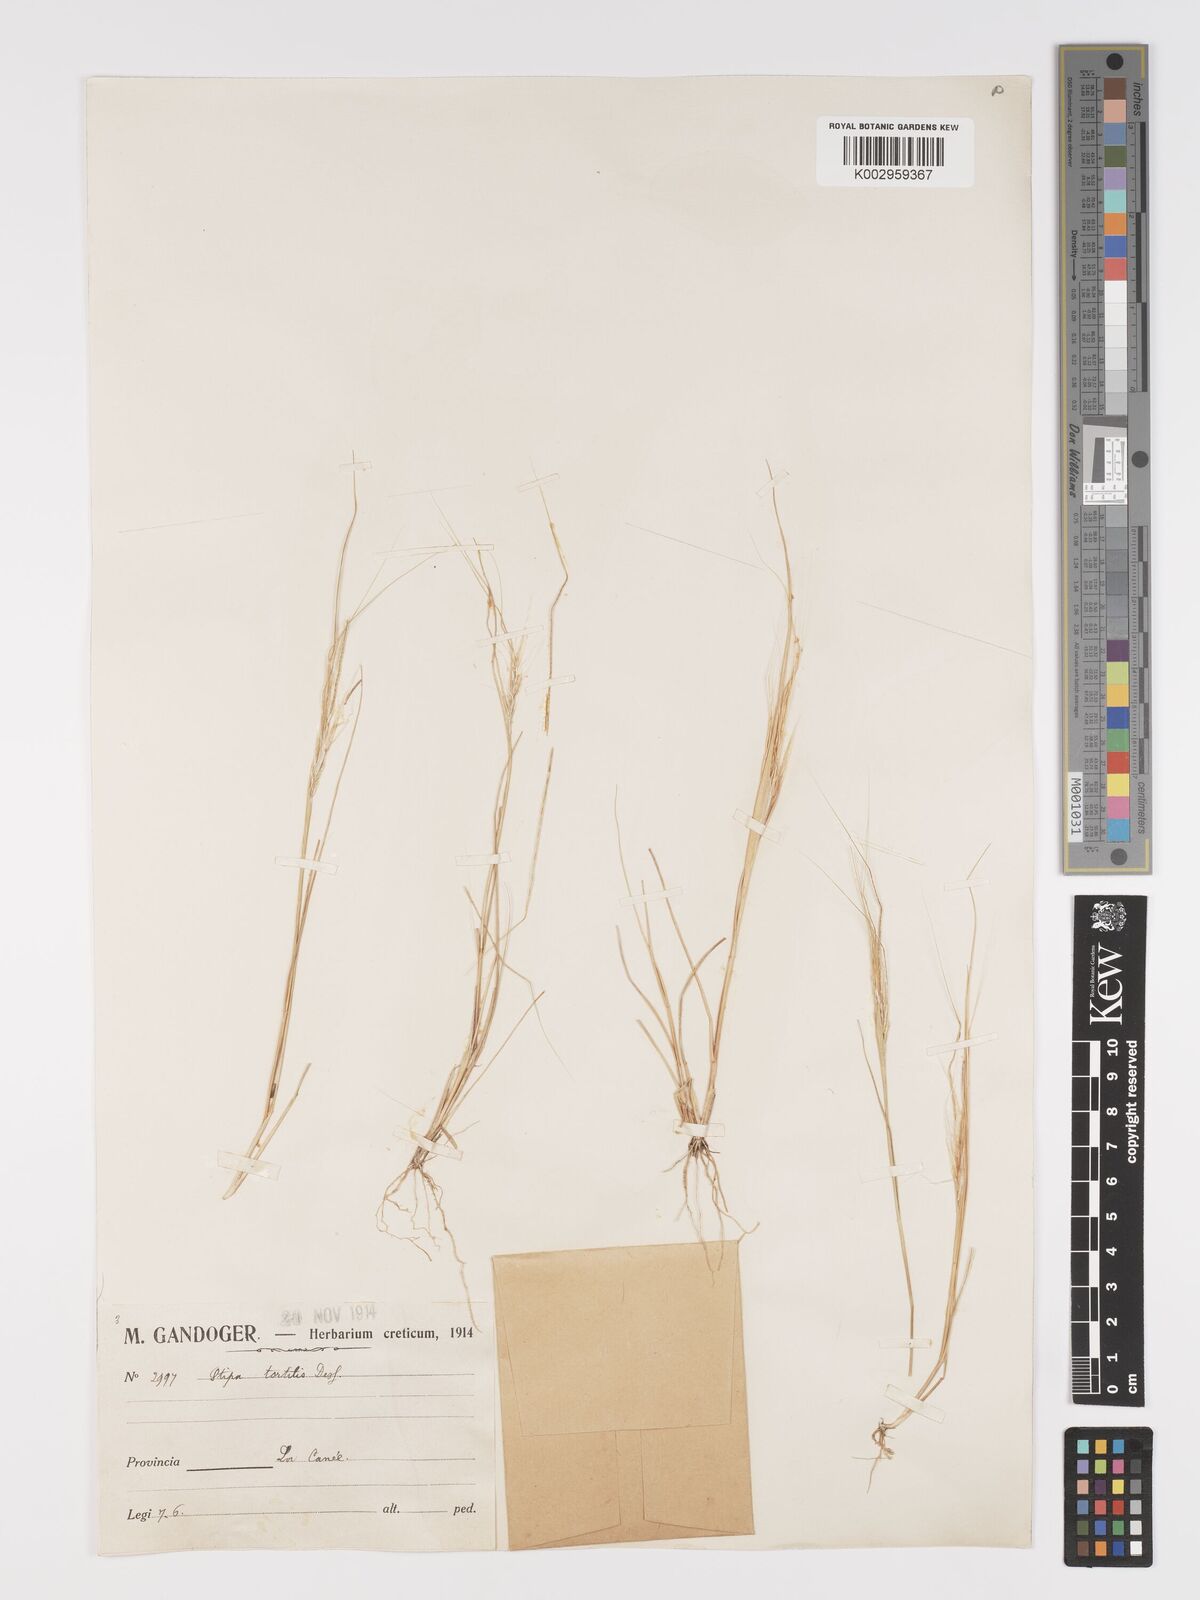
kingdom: Plantae
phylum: Tracheophyta
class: Liliopsida
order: Poales
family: Poaceae
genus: Stipellula
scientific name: Stipellula capensis
